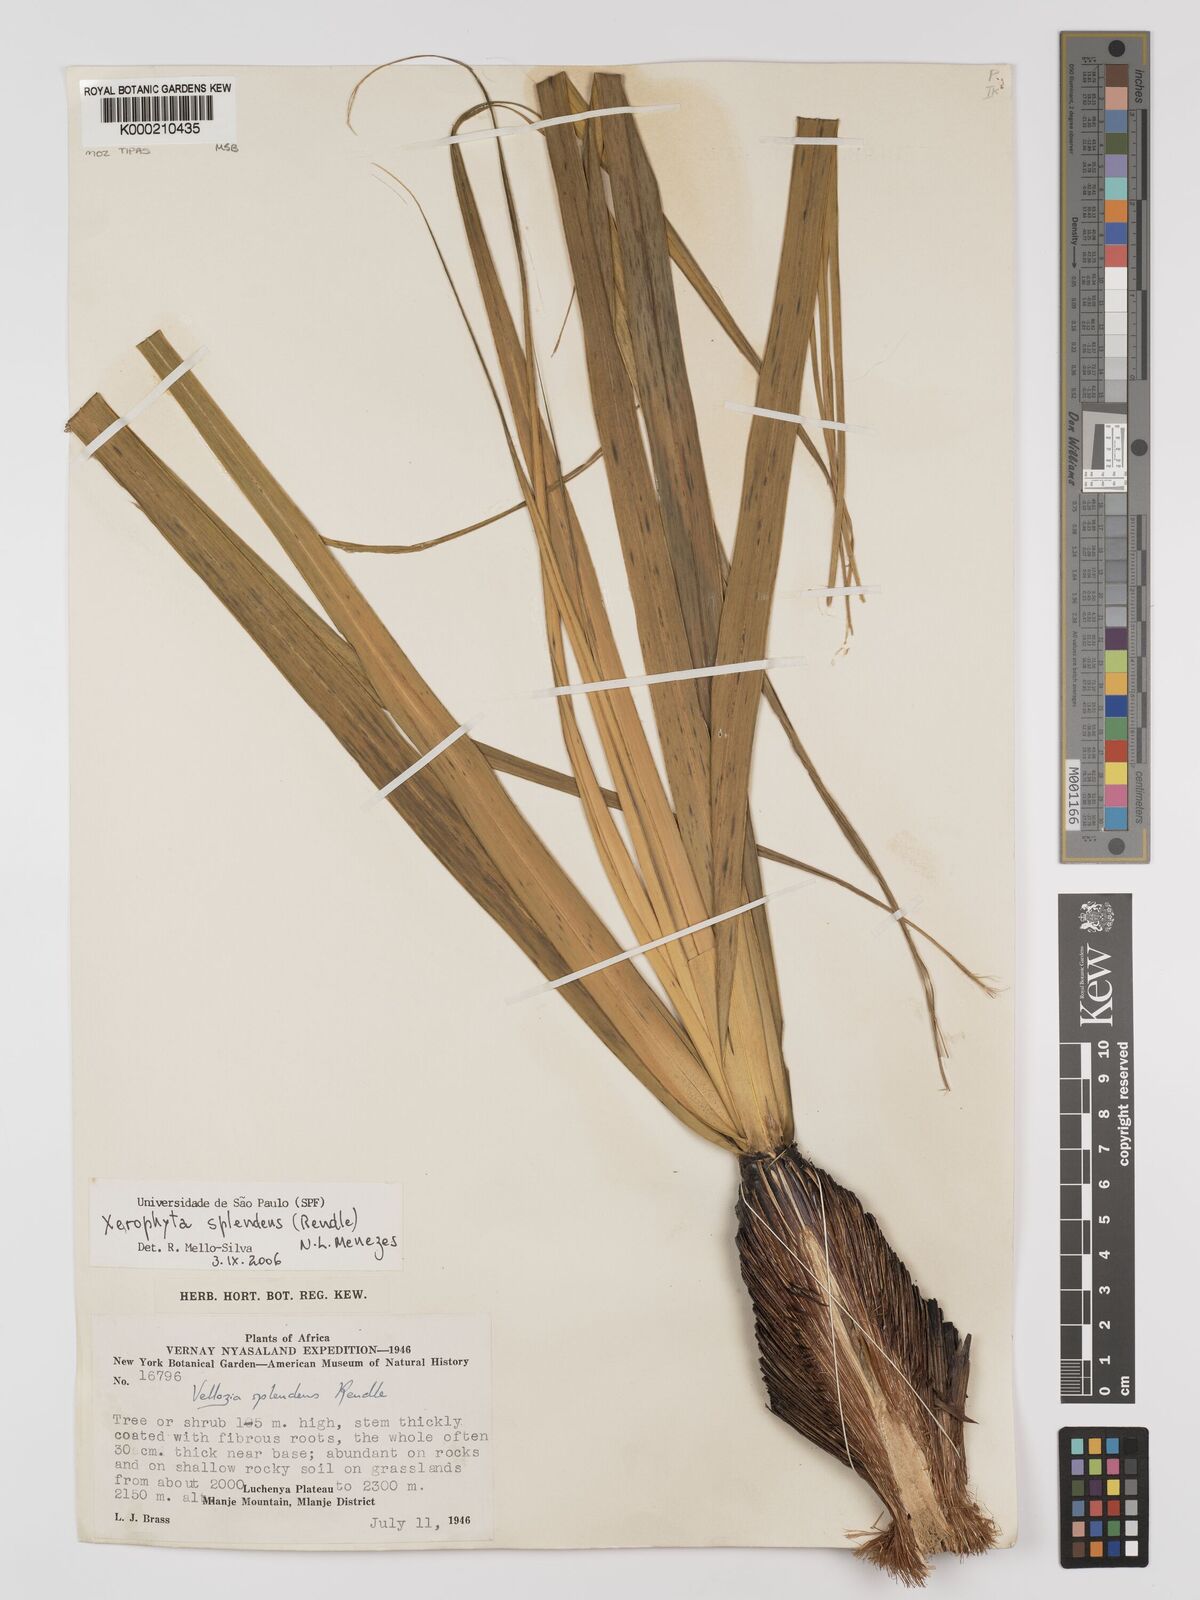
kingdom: Plantae
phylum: Tracheophyta
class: Liliopsida
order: Pandanales
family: Velloziaceae
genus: Xerophyta
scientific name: Xerophyta splendens
